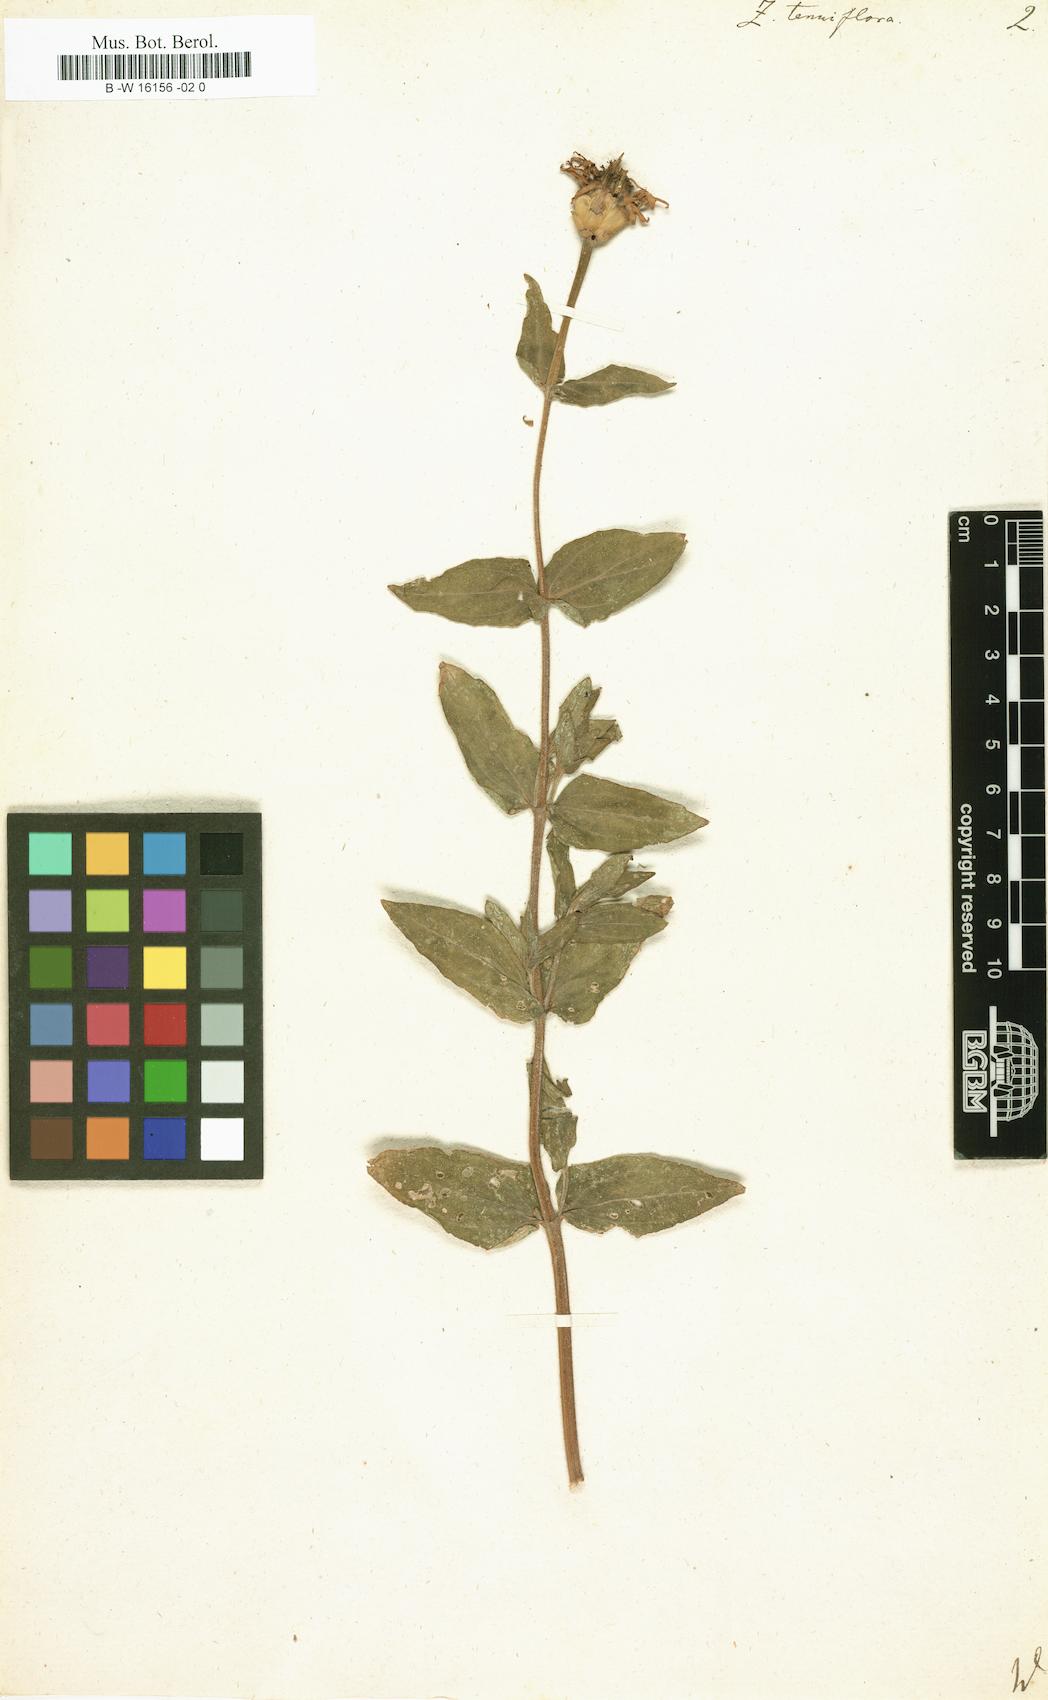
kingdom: Plantae
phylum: Tracheophyta
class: Magnoliopsida
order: Asterales
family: Asteraceae
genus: Zinnia
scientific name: Zinnia peruviana
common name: Peruvian zinnia
